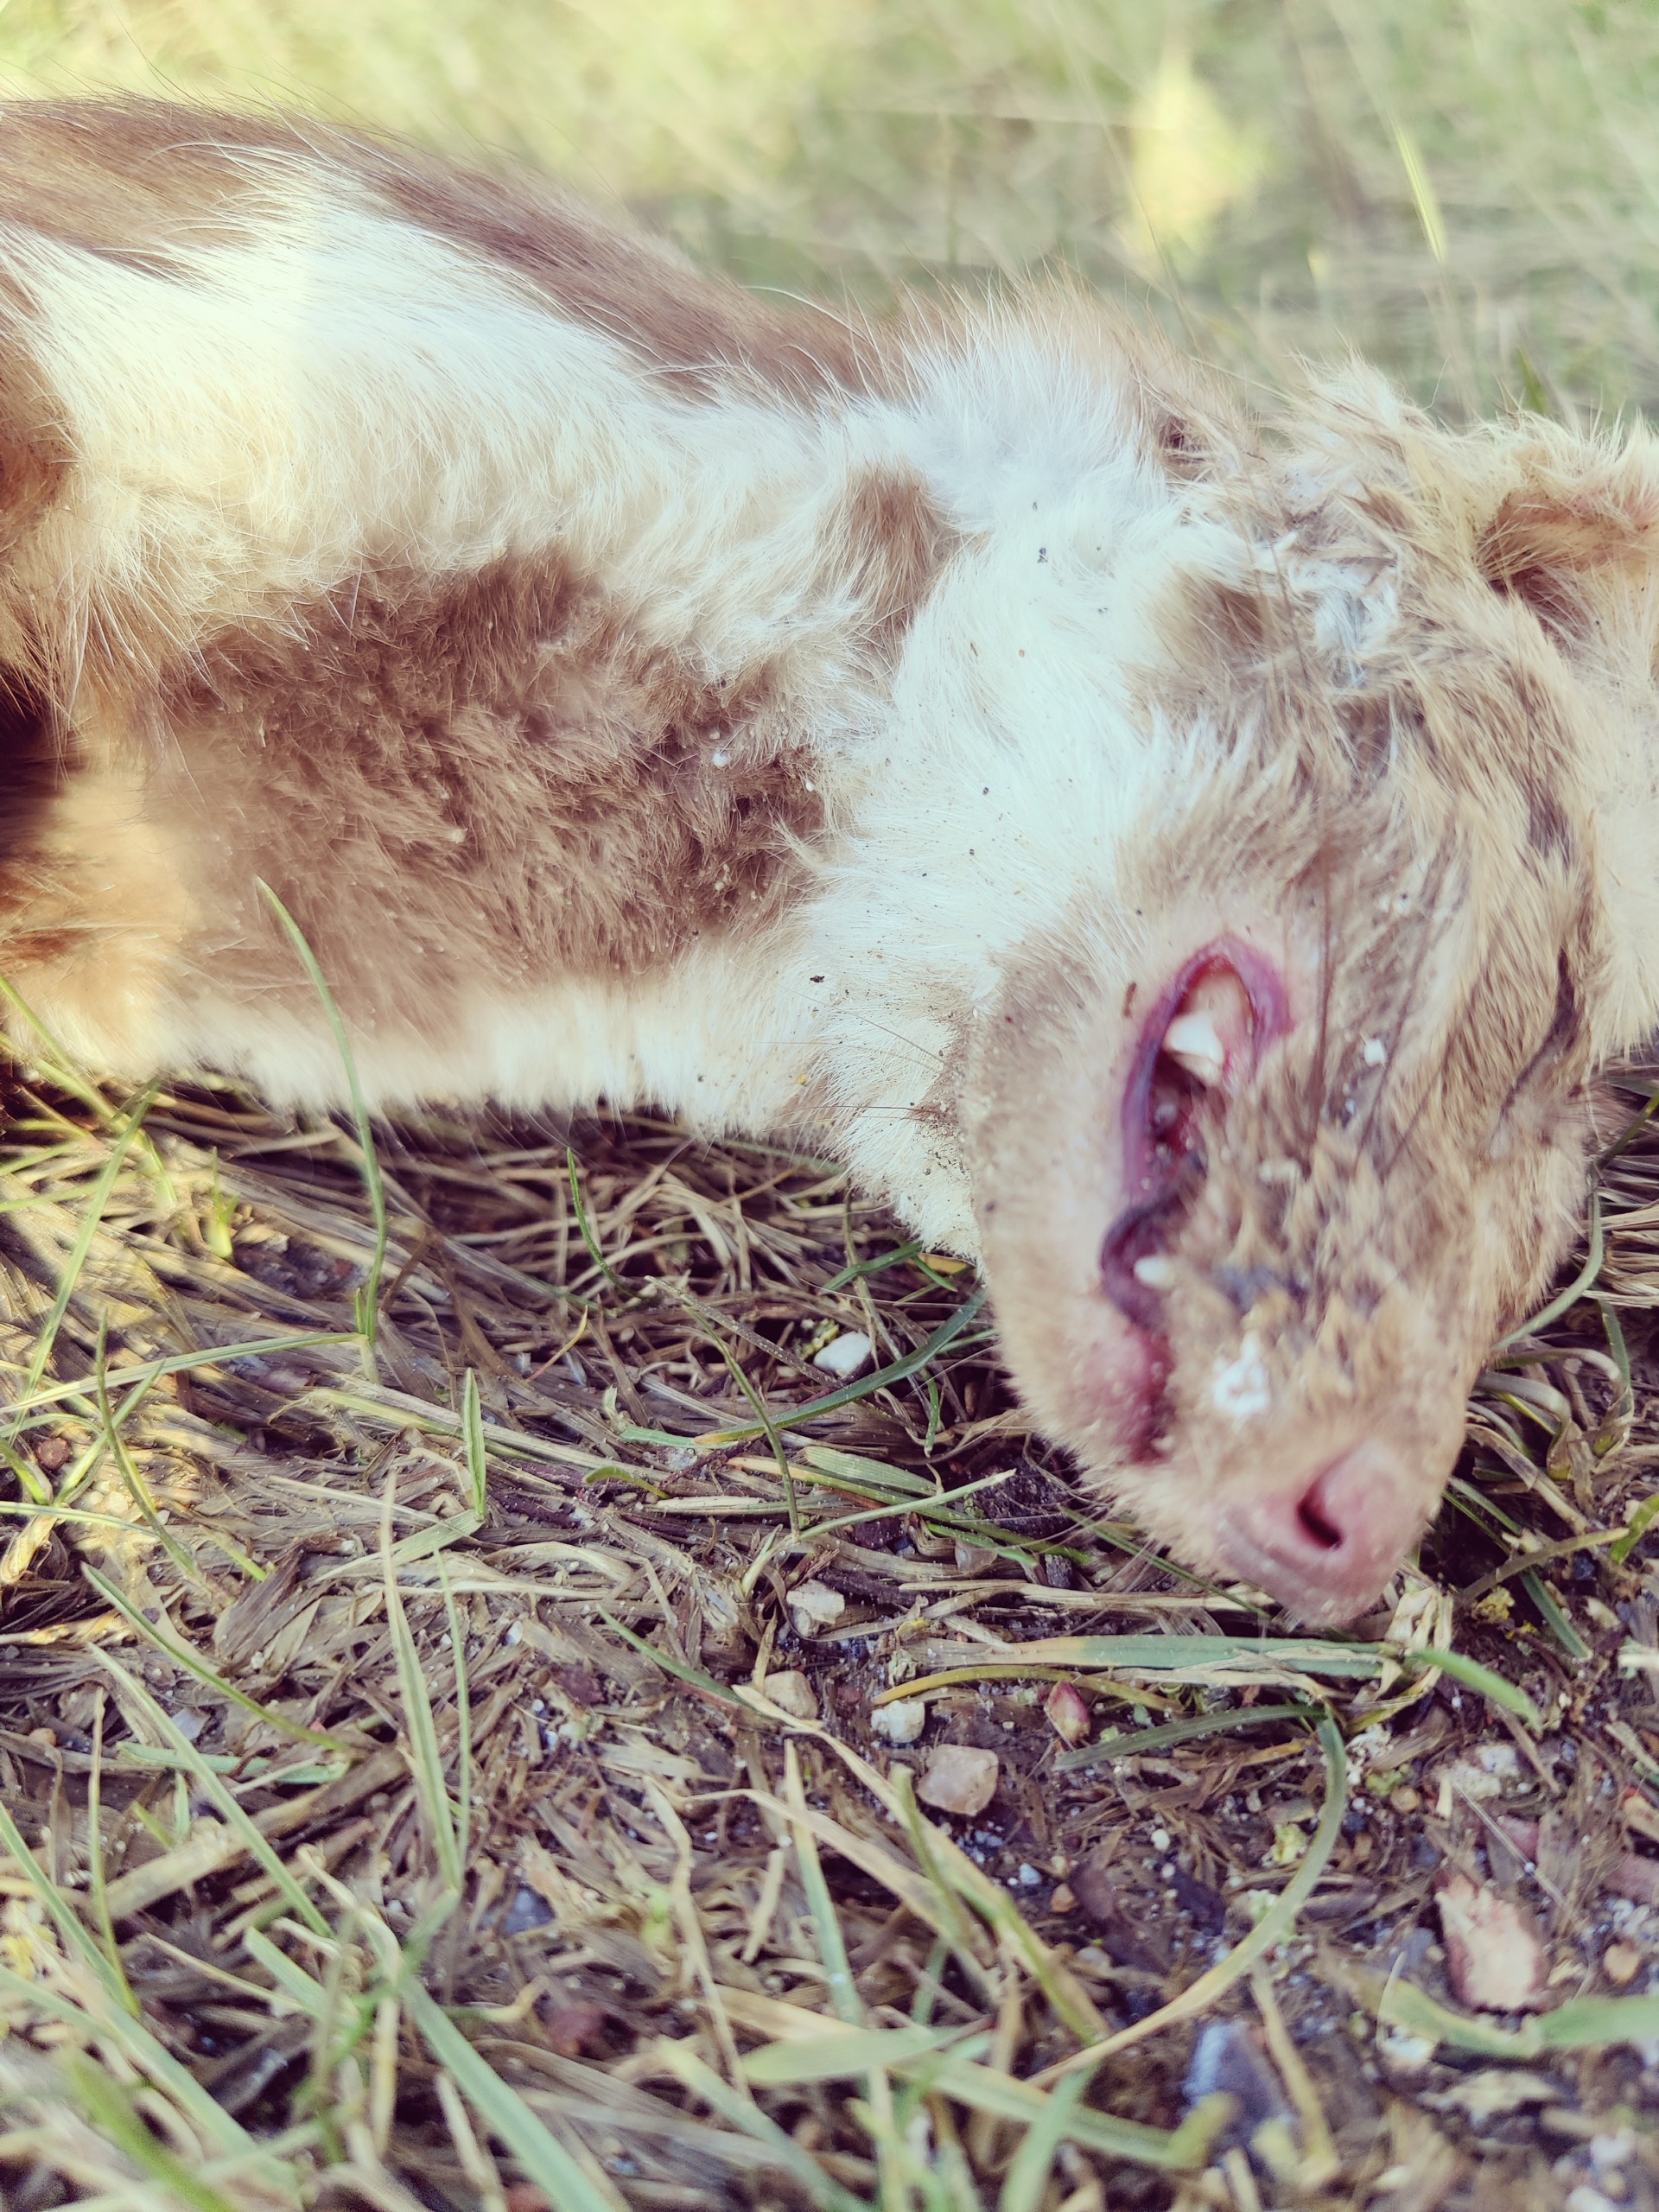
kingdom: Animalia
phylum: Chordata
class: Mammalia
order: Carnivora
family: Mustelidae
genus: Martes
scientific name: Martes foina
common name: Husmår
